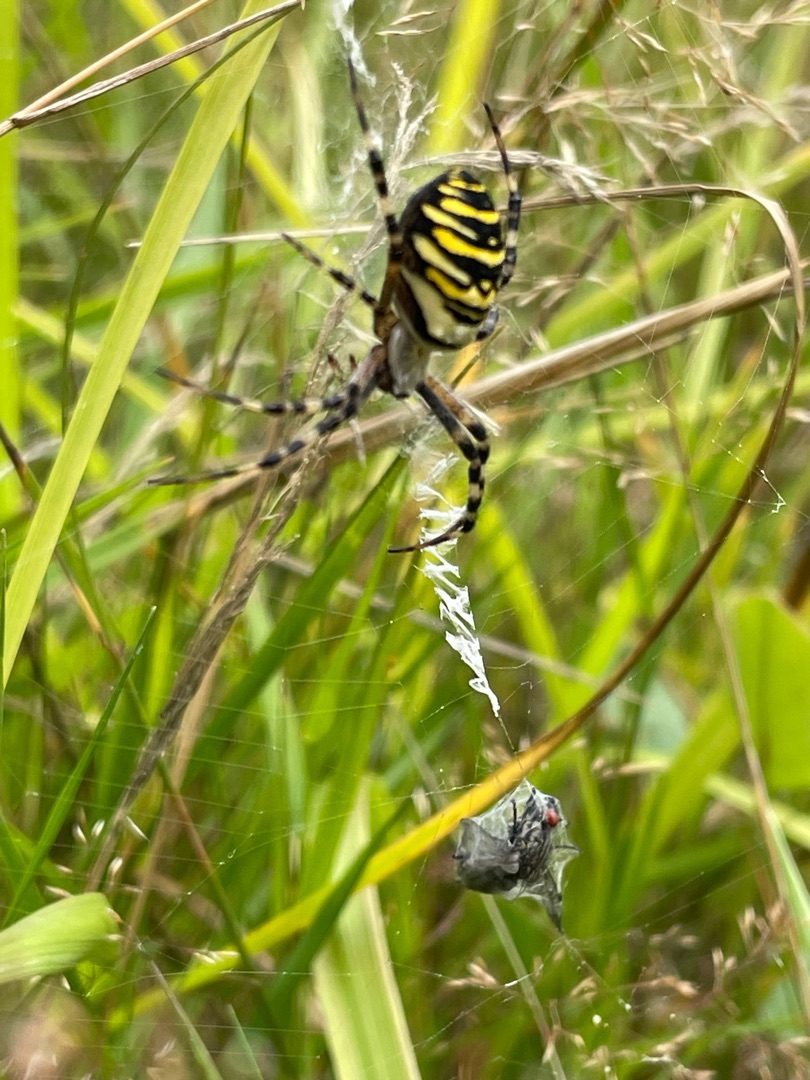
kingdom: Animalia
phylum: Arthropoda
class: Arachnida
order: Araneae
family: Araneidae
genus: Argiope
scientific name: Argiope bruennichi
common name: Hvepseedderkop
